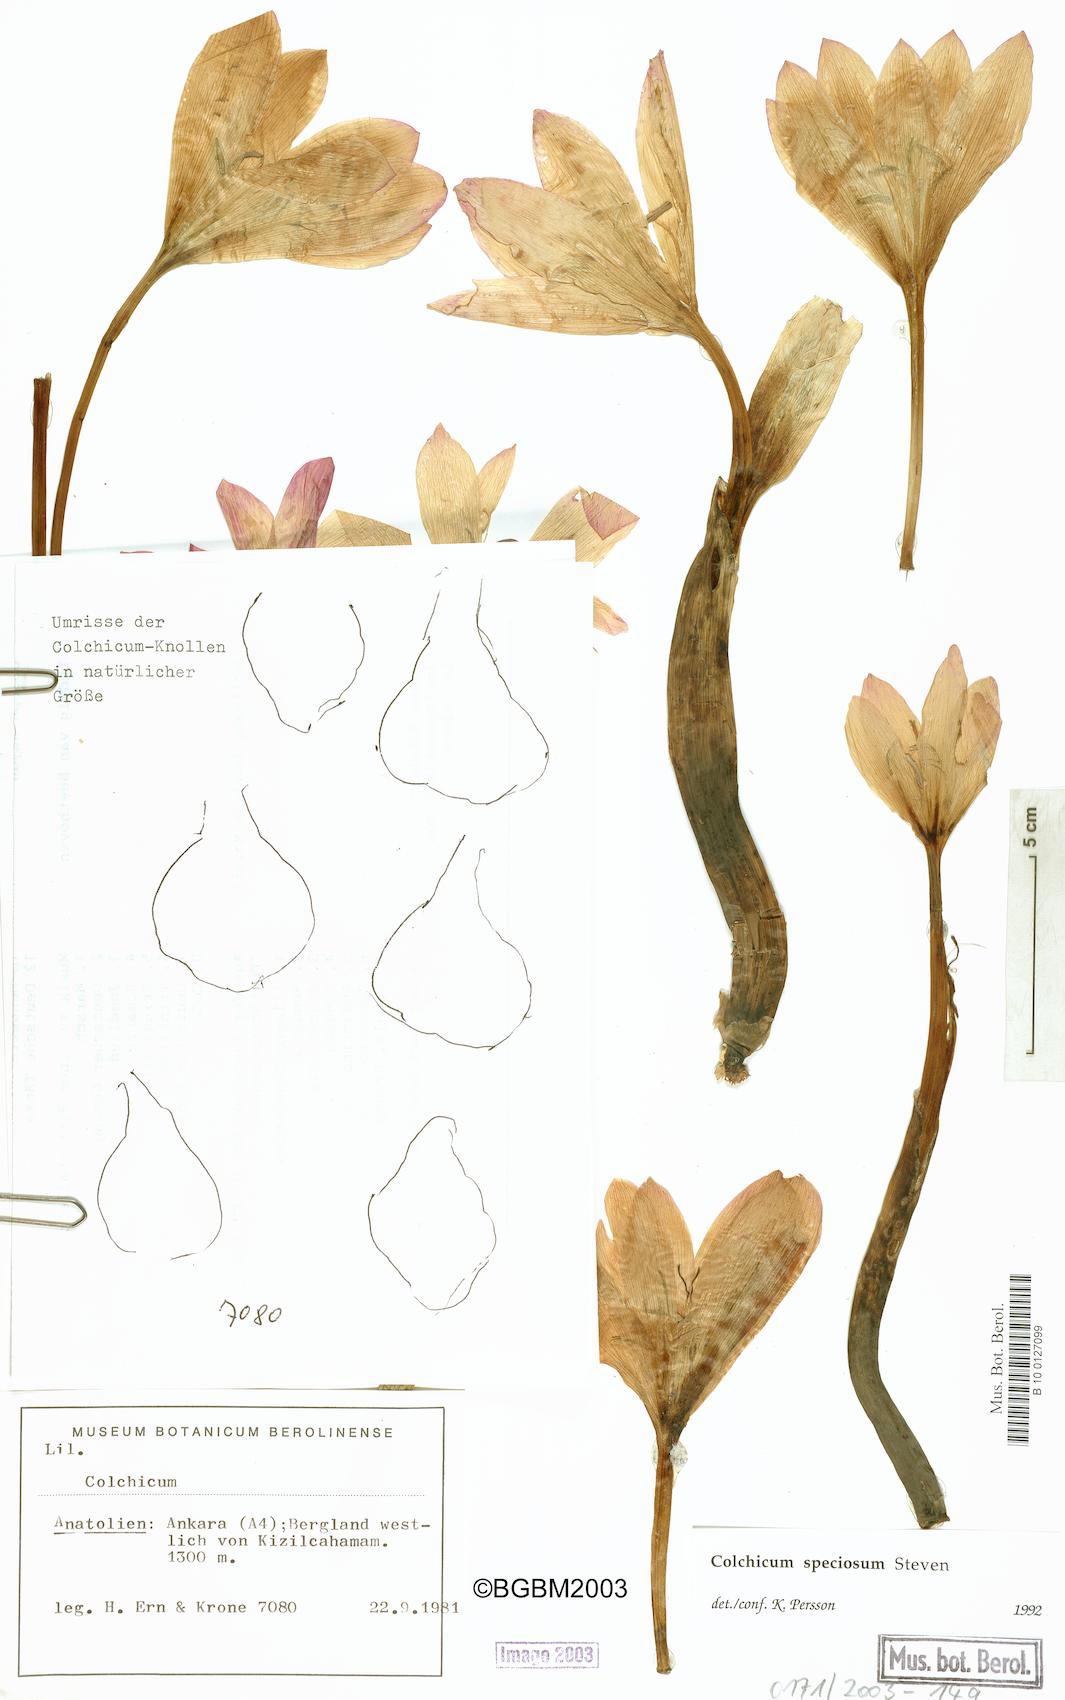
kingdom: Plantae
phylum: Tracheophyta
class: Liliopsida
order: Liliales
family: Colchicaceae
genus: Colchicum
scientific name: Colchicum speciosum
